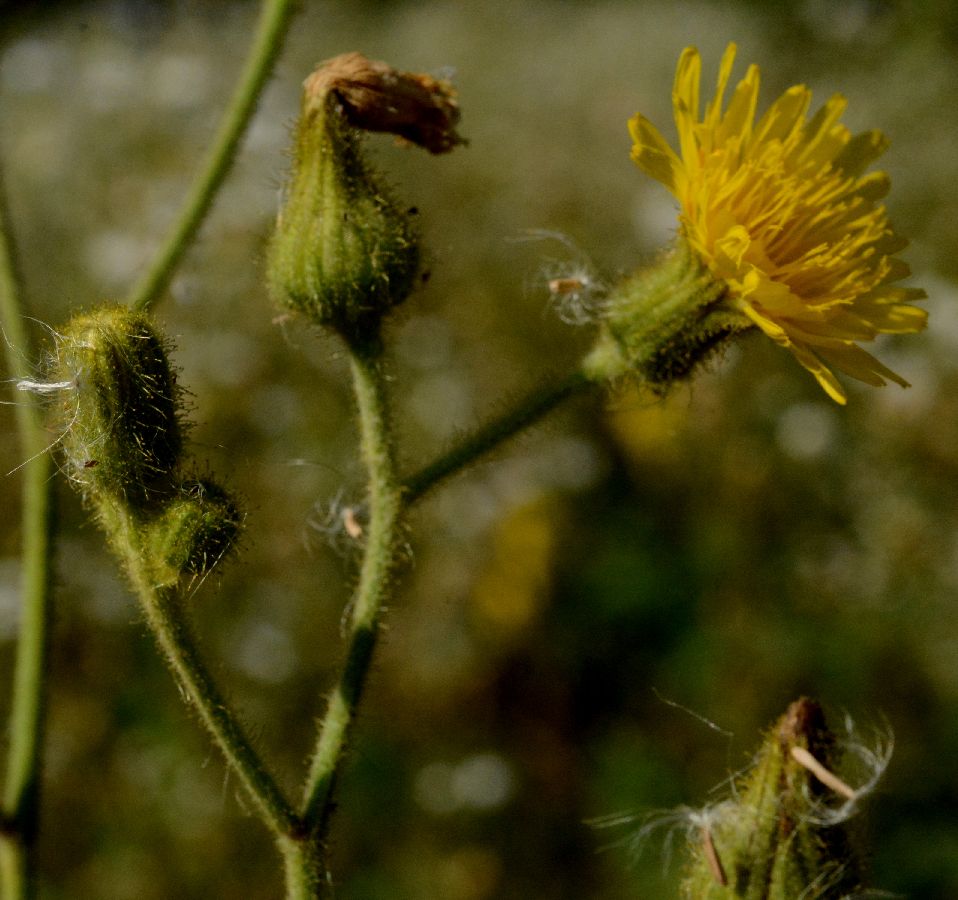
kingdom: Plantae
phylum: Tracheophyta
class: Magnoliopsida
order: Asterales
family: Asteraceae
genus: Sonchus
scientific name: Sonchus palustris
